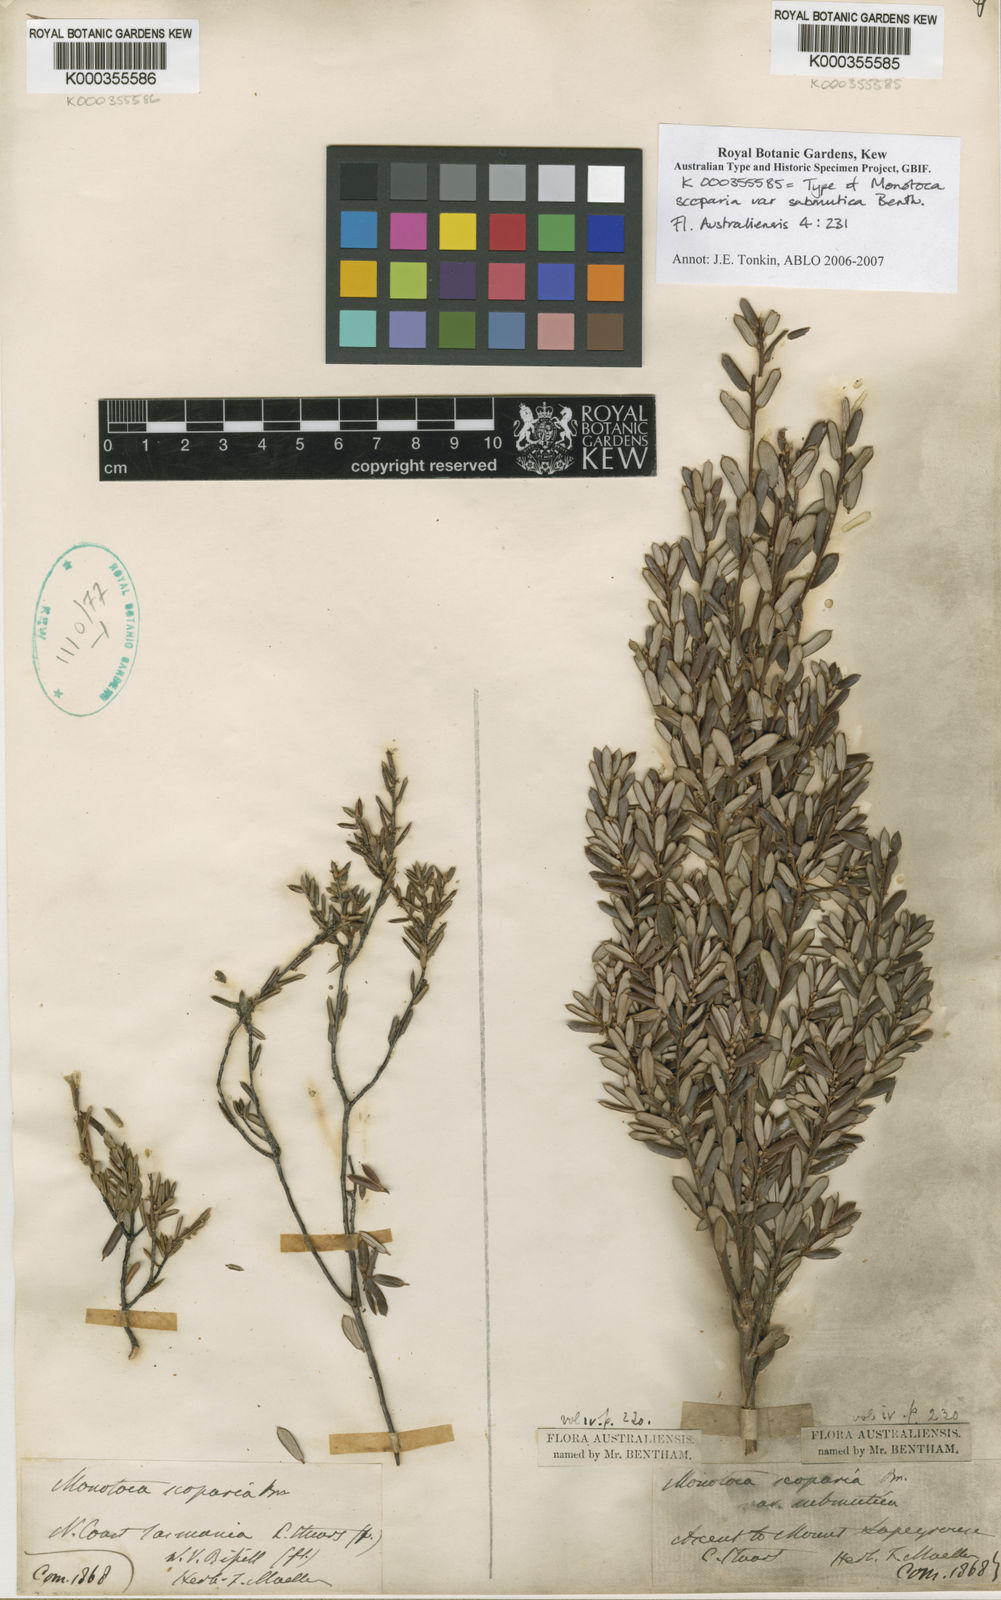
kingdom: Plantae
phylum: Tracheophyta
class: Magnoliopsida
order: Ericales
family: Ericaceae
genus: Monotoca
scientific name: Monotoca submutica
